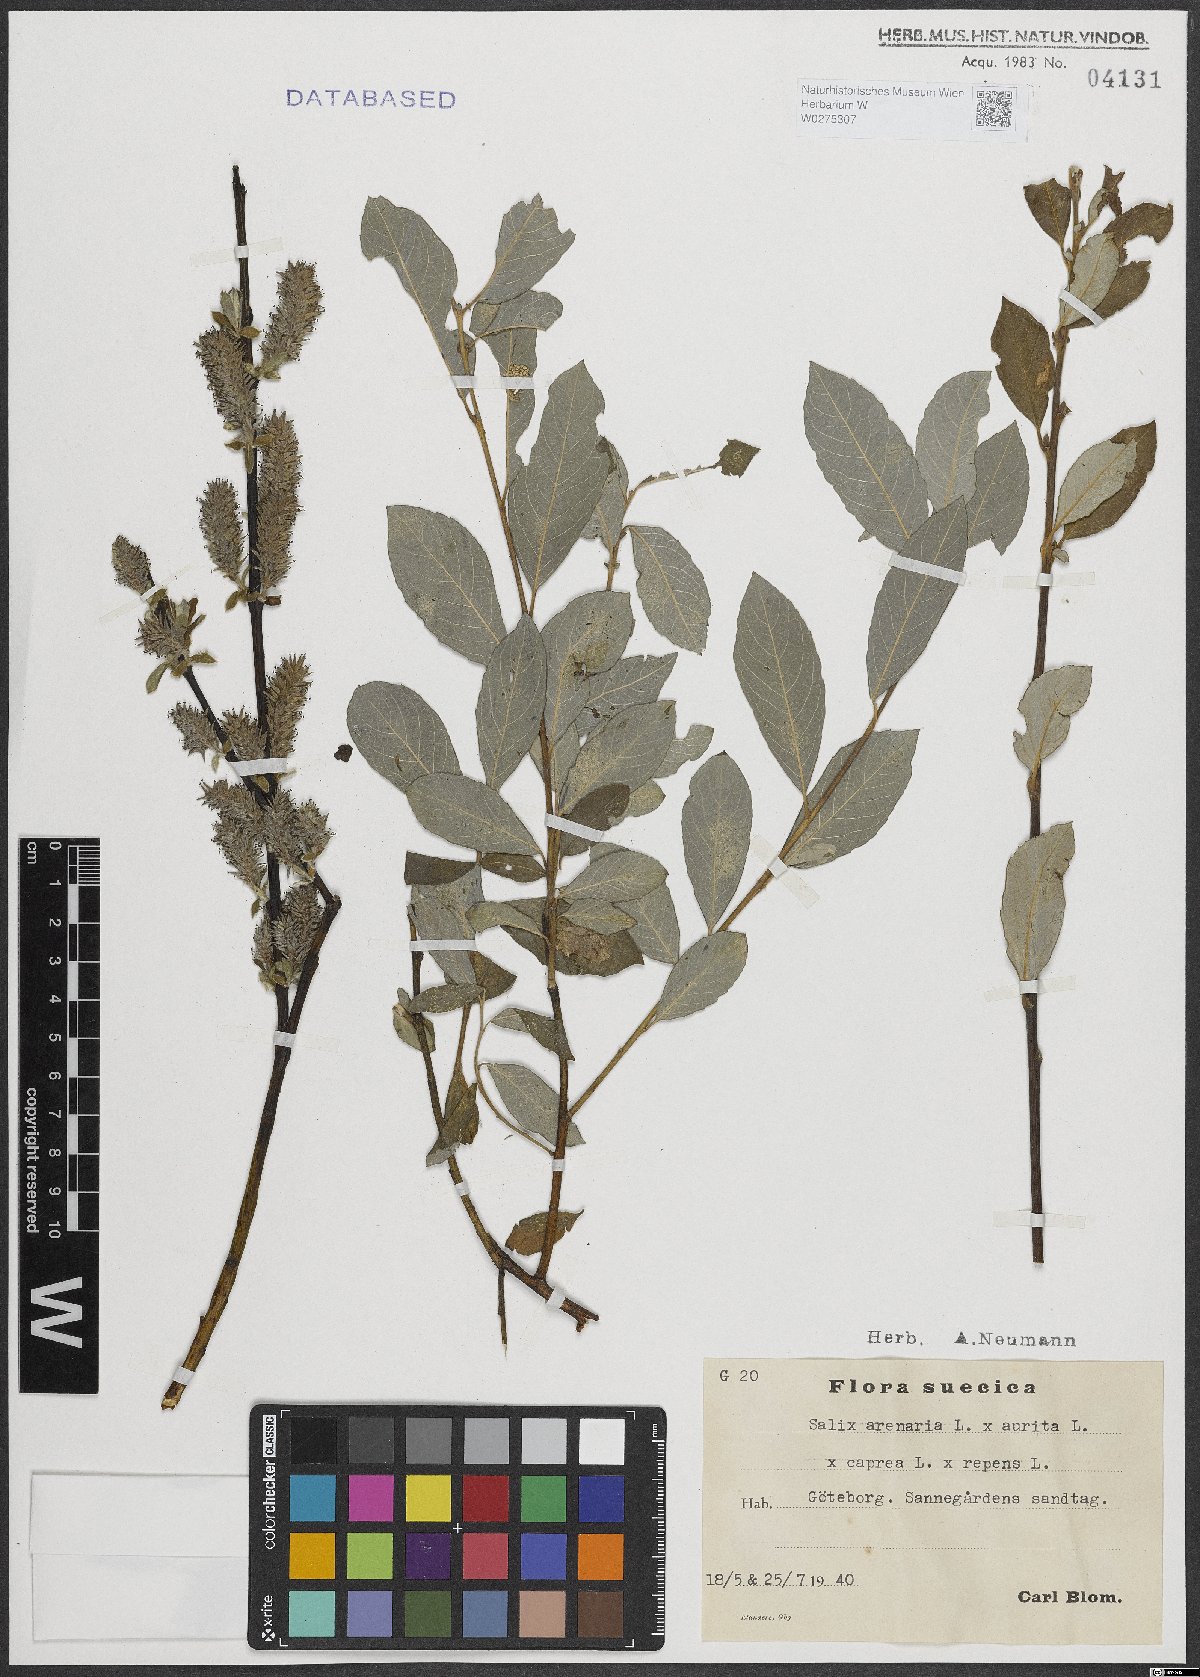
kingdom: Plantae
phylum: Tracheophyta
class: Magnoliopsida
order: Malpighiales
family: Salicaceae
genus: Salix
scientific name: Salix repens
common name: Creeping willow
